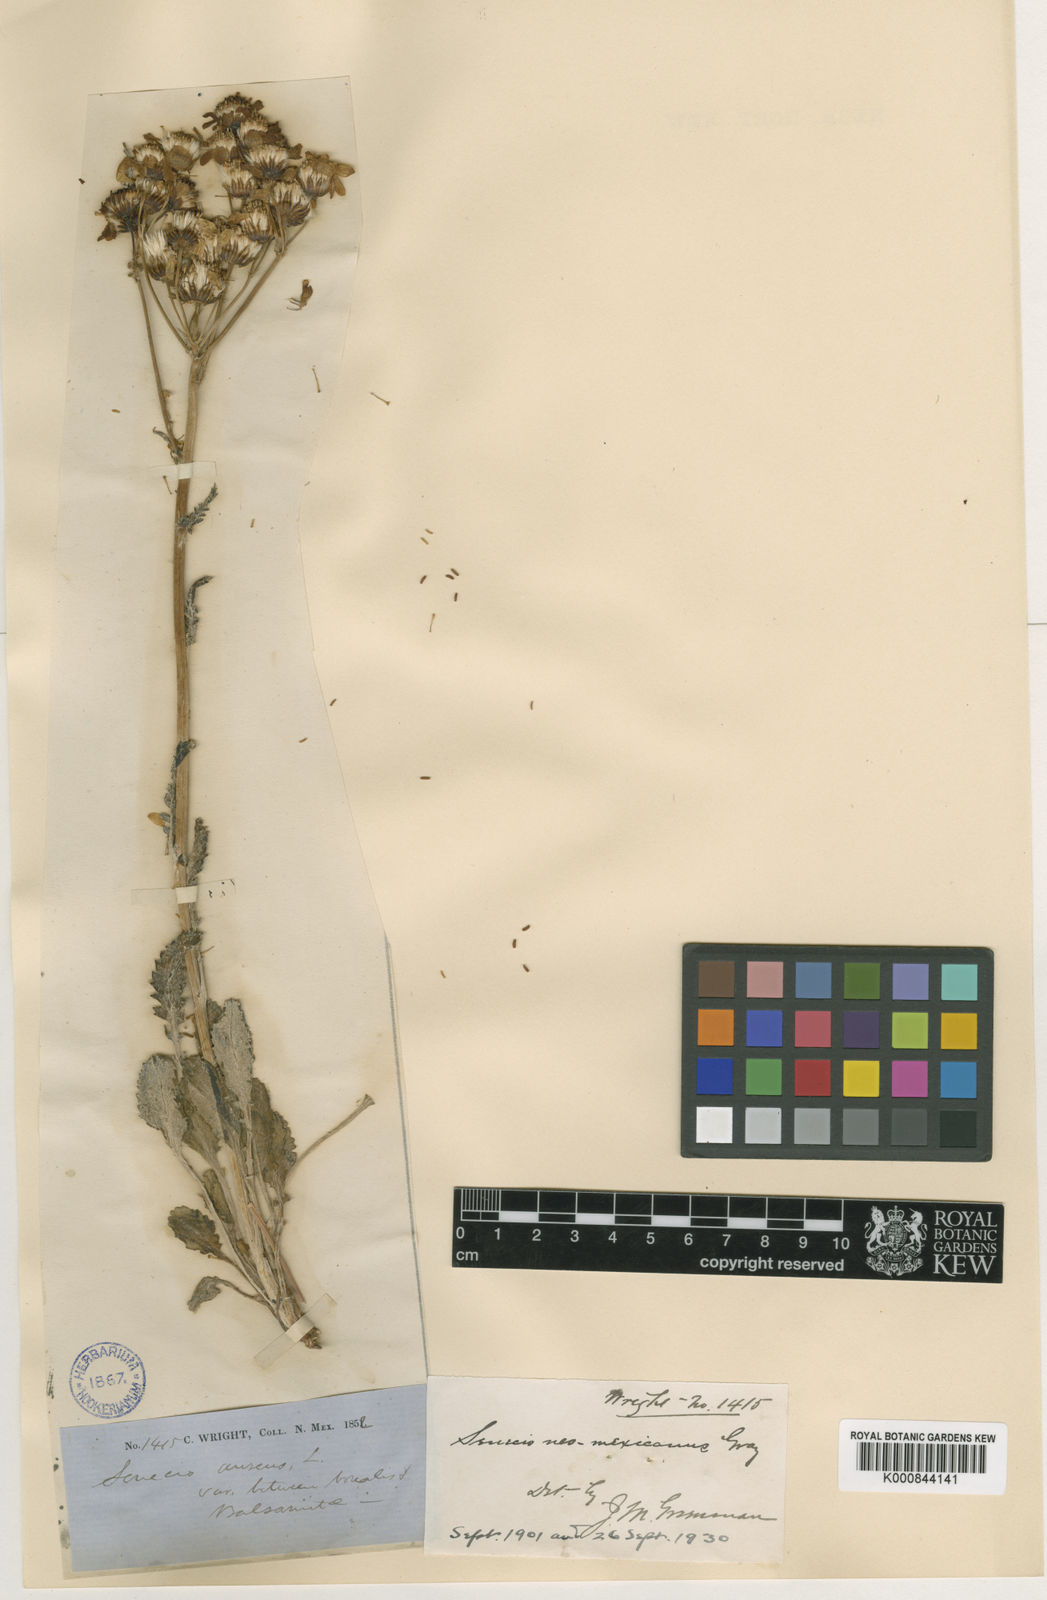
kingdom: Plantae
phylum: Tracheophyta
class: Magnoliopsida
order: Asterales
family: Asteraceae
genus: Packera
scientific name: Packera
